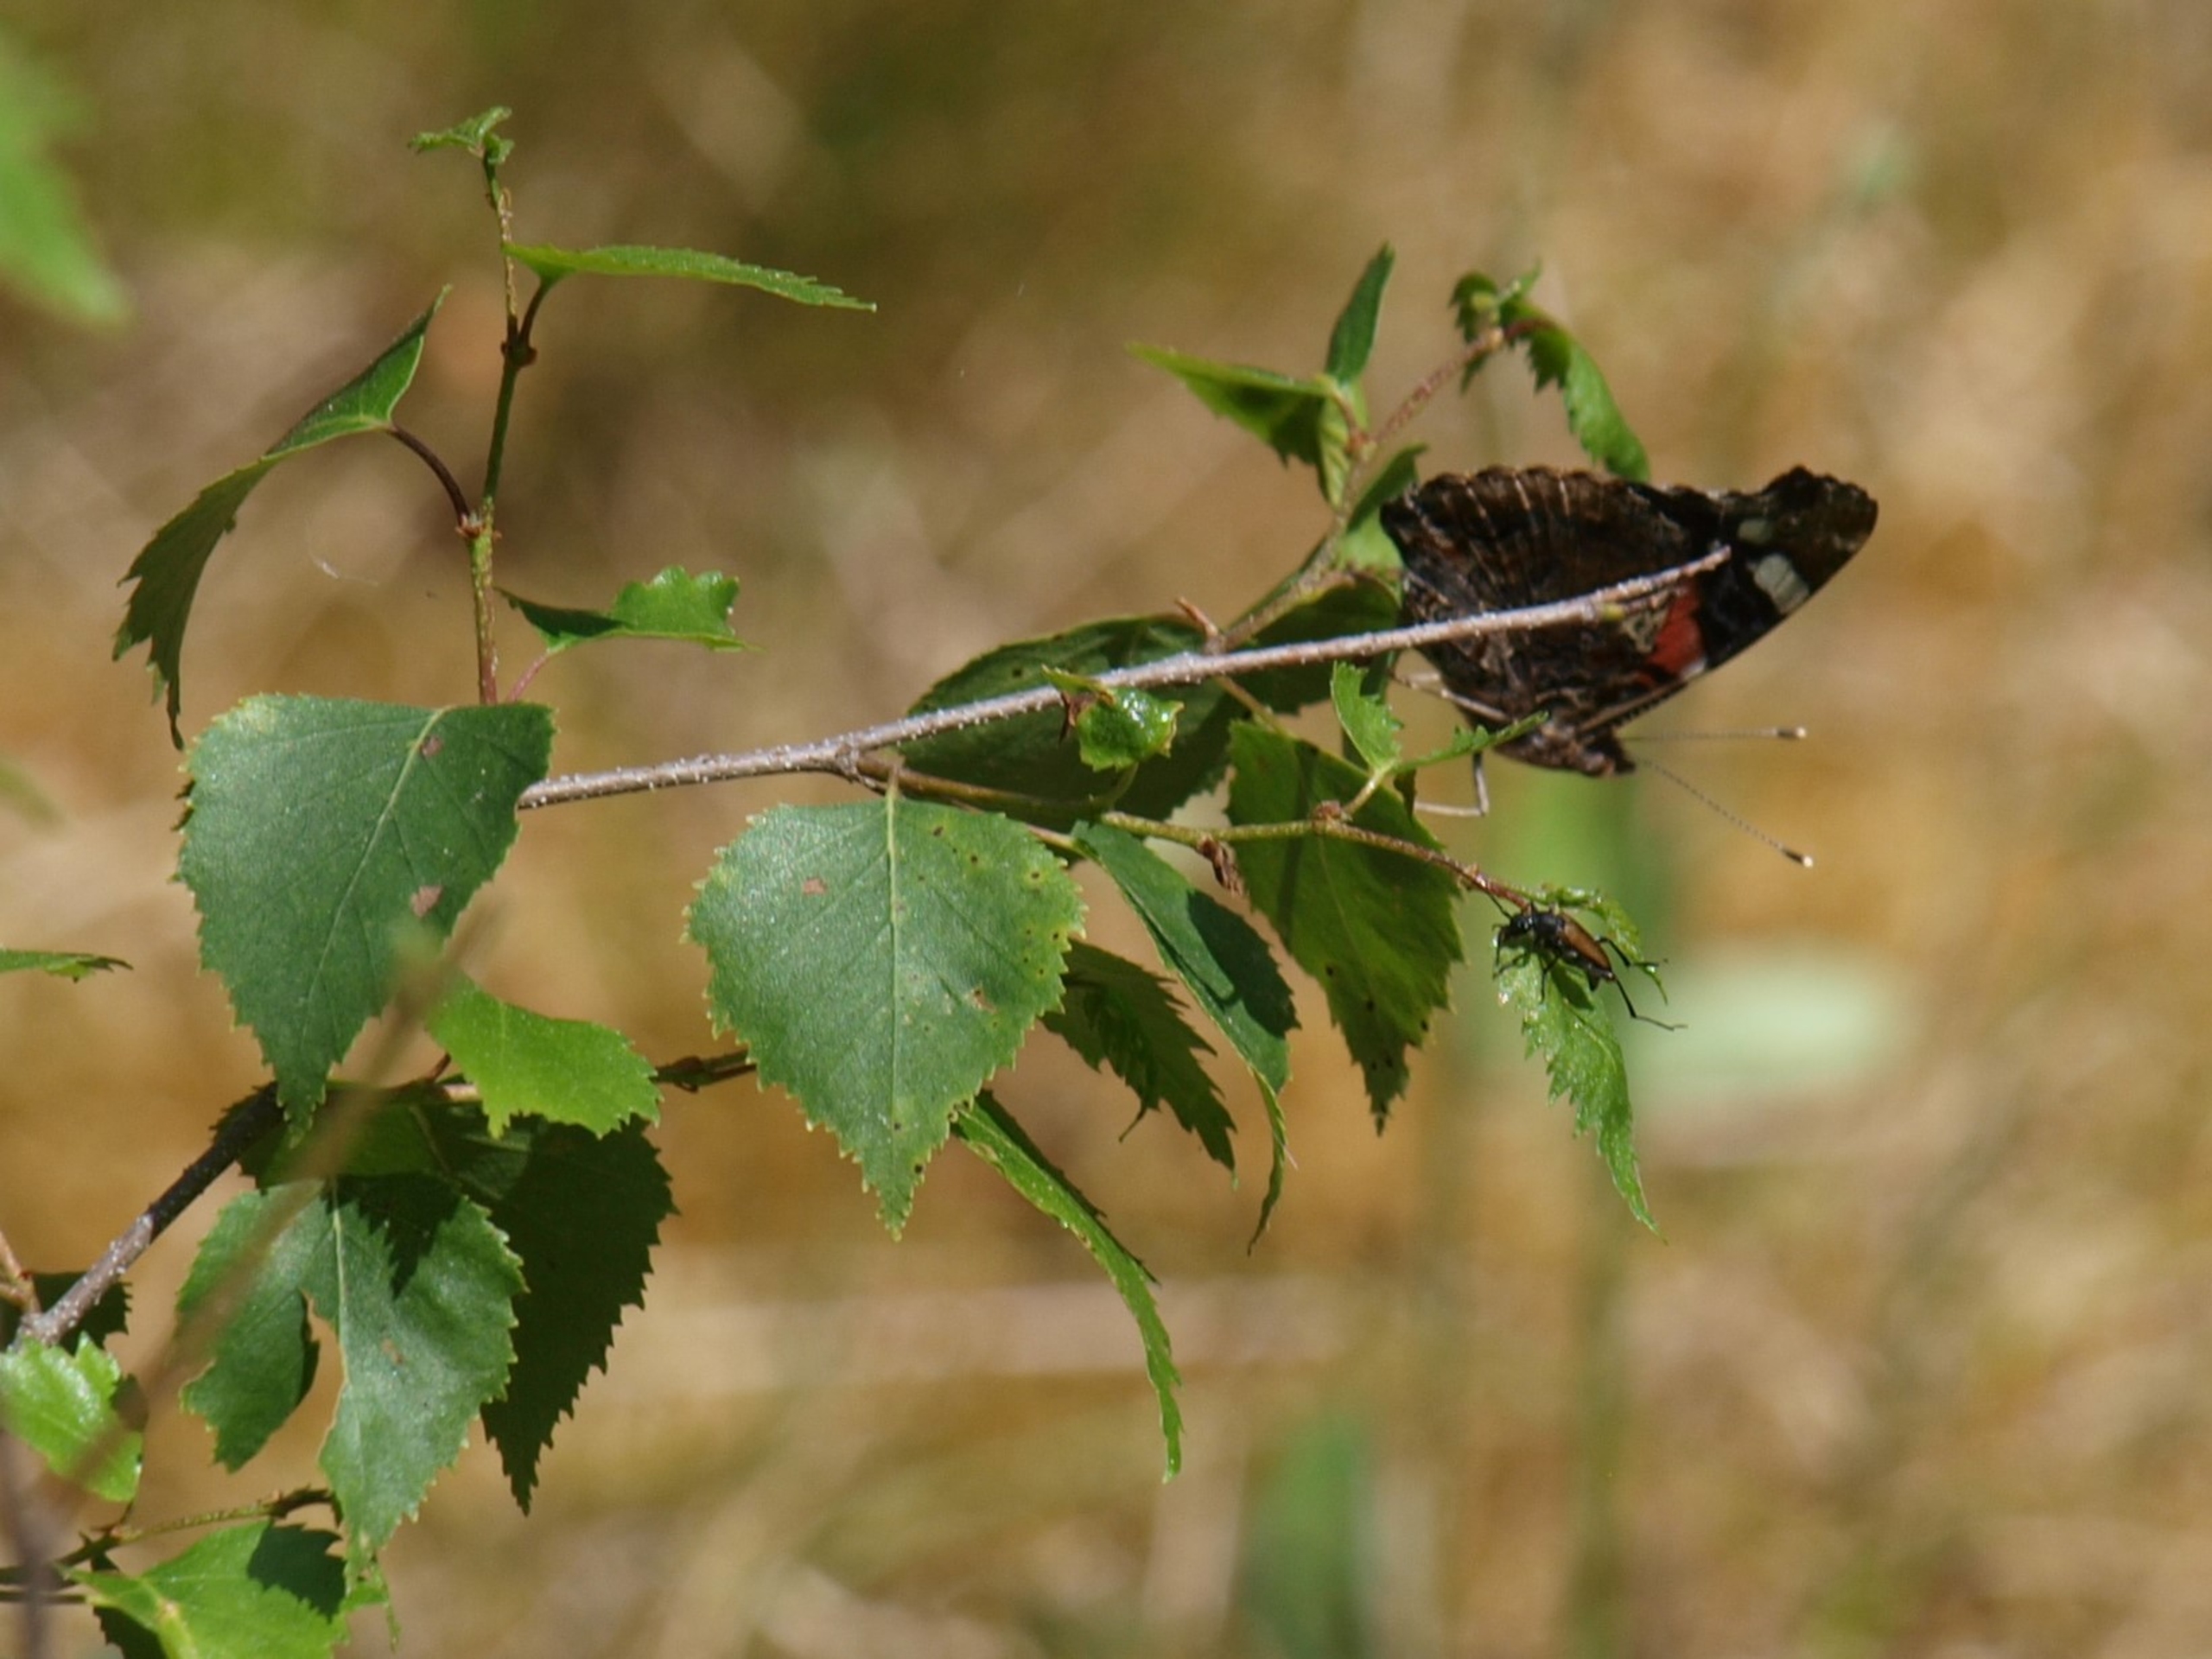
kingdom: Animalia
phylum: Arthropoda
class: Insecta
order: Lepidoptera
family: Nymphalidae
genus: Vanessa
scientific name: Vanessa atalanta
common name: Admiral
